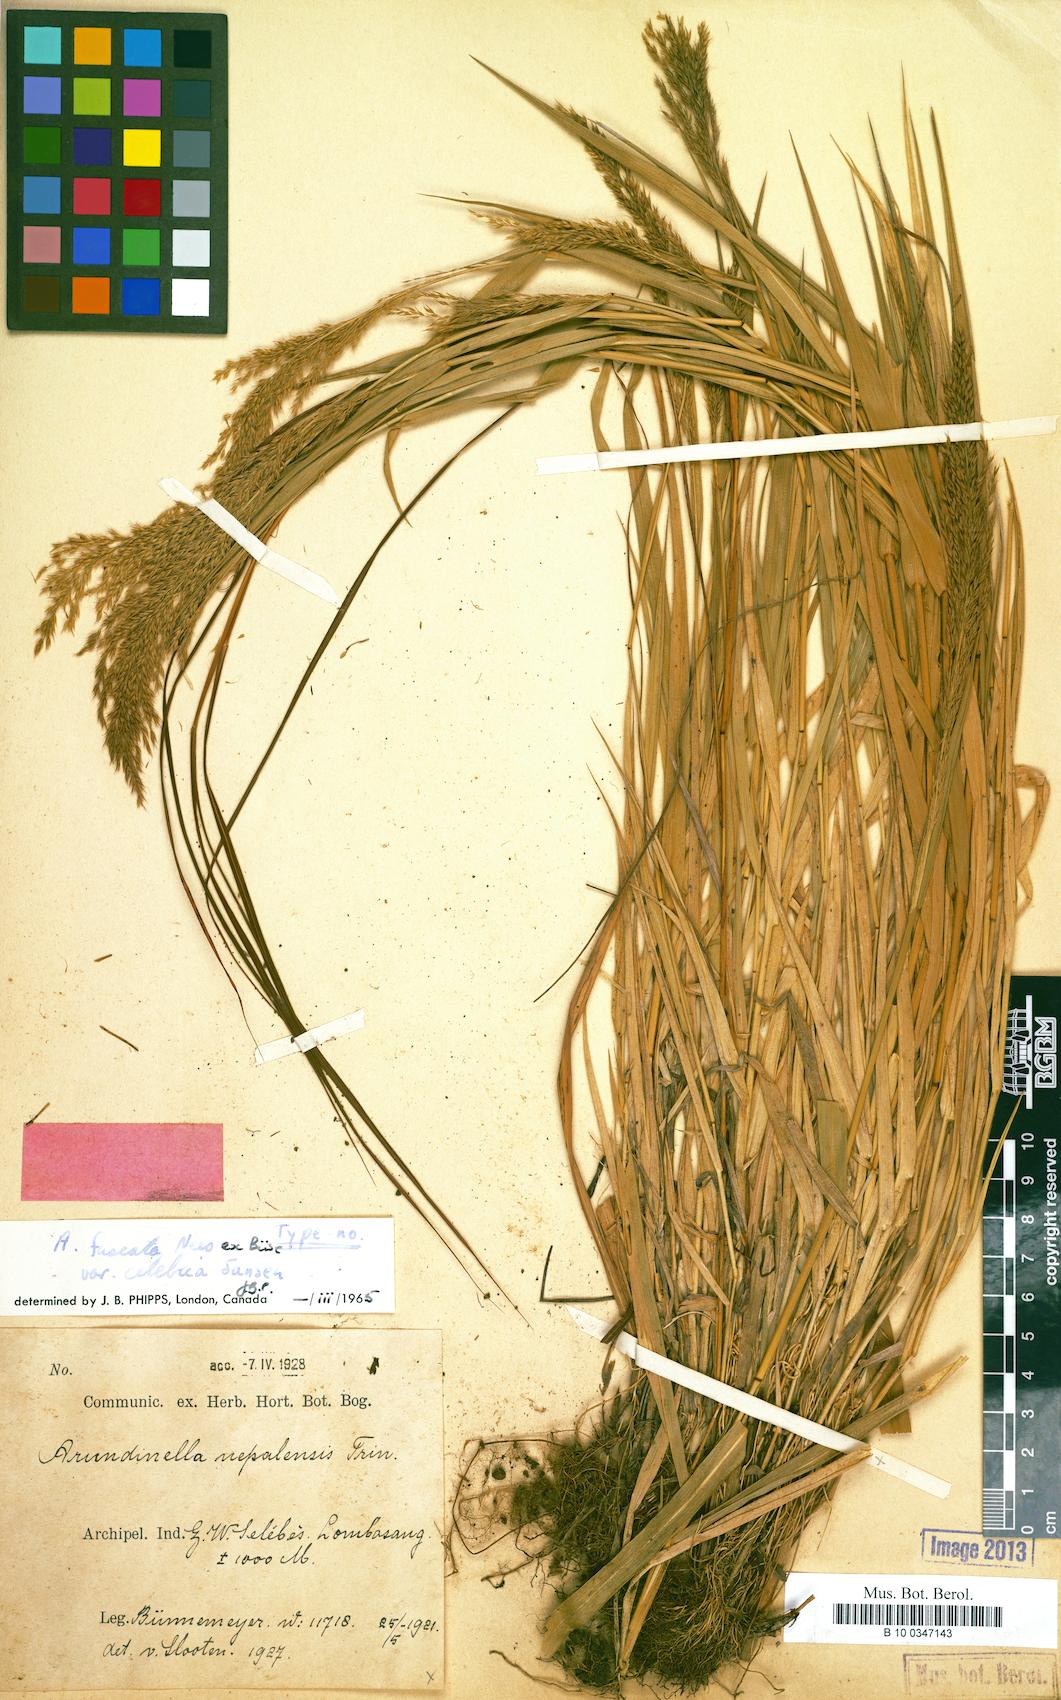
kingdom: Plantae
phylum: Tracheophyta
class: Liliopsida
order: Poales
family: Poaceae
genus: Arundinella
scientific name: Arundinella holcoides
